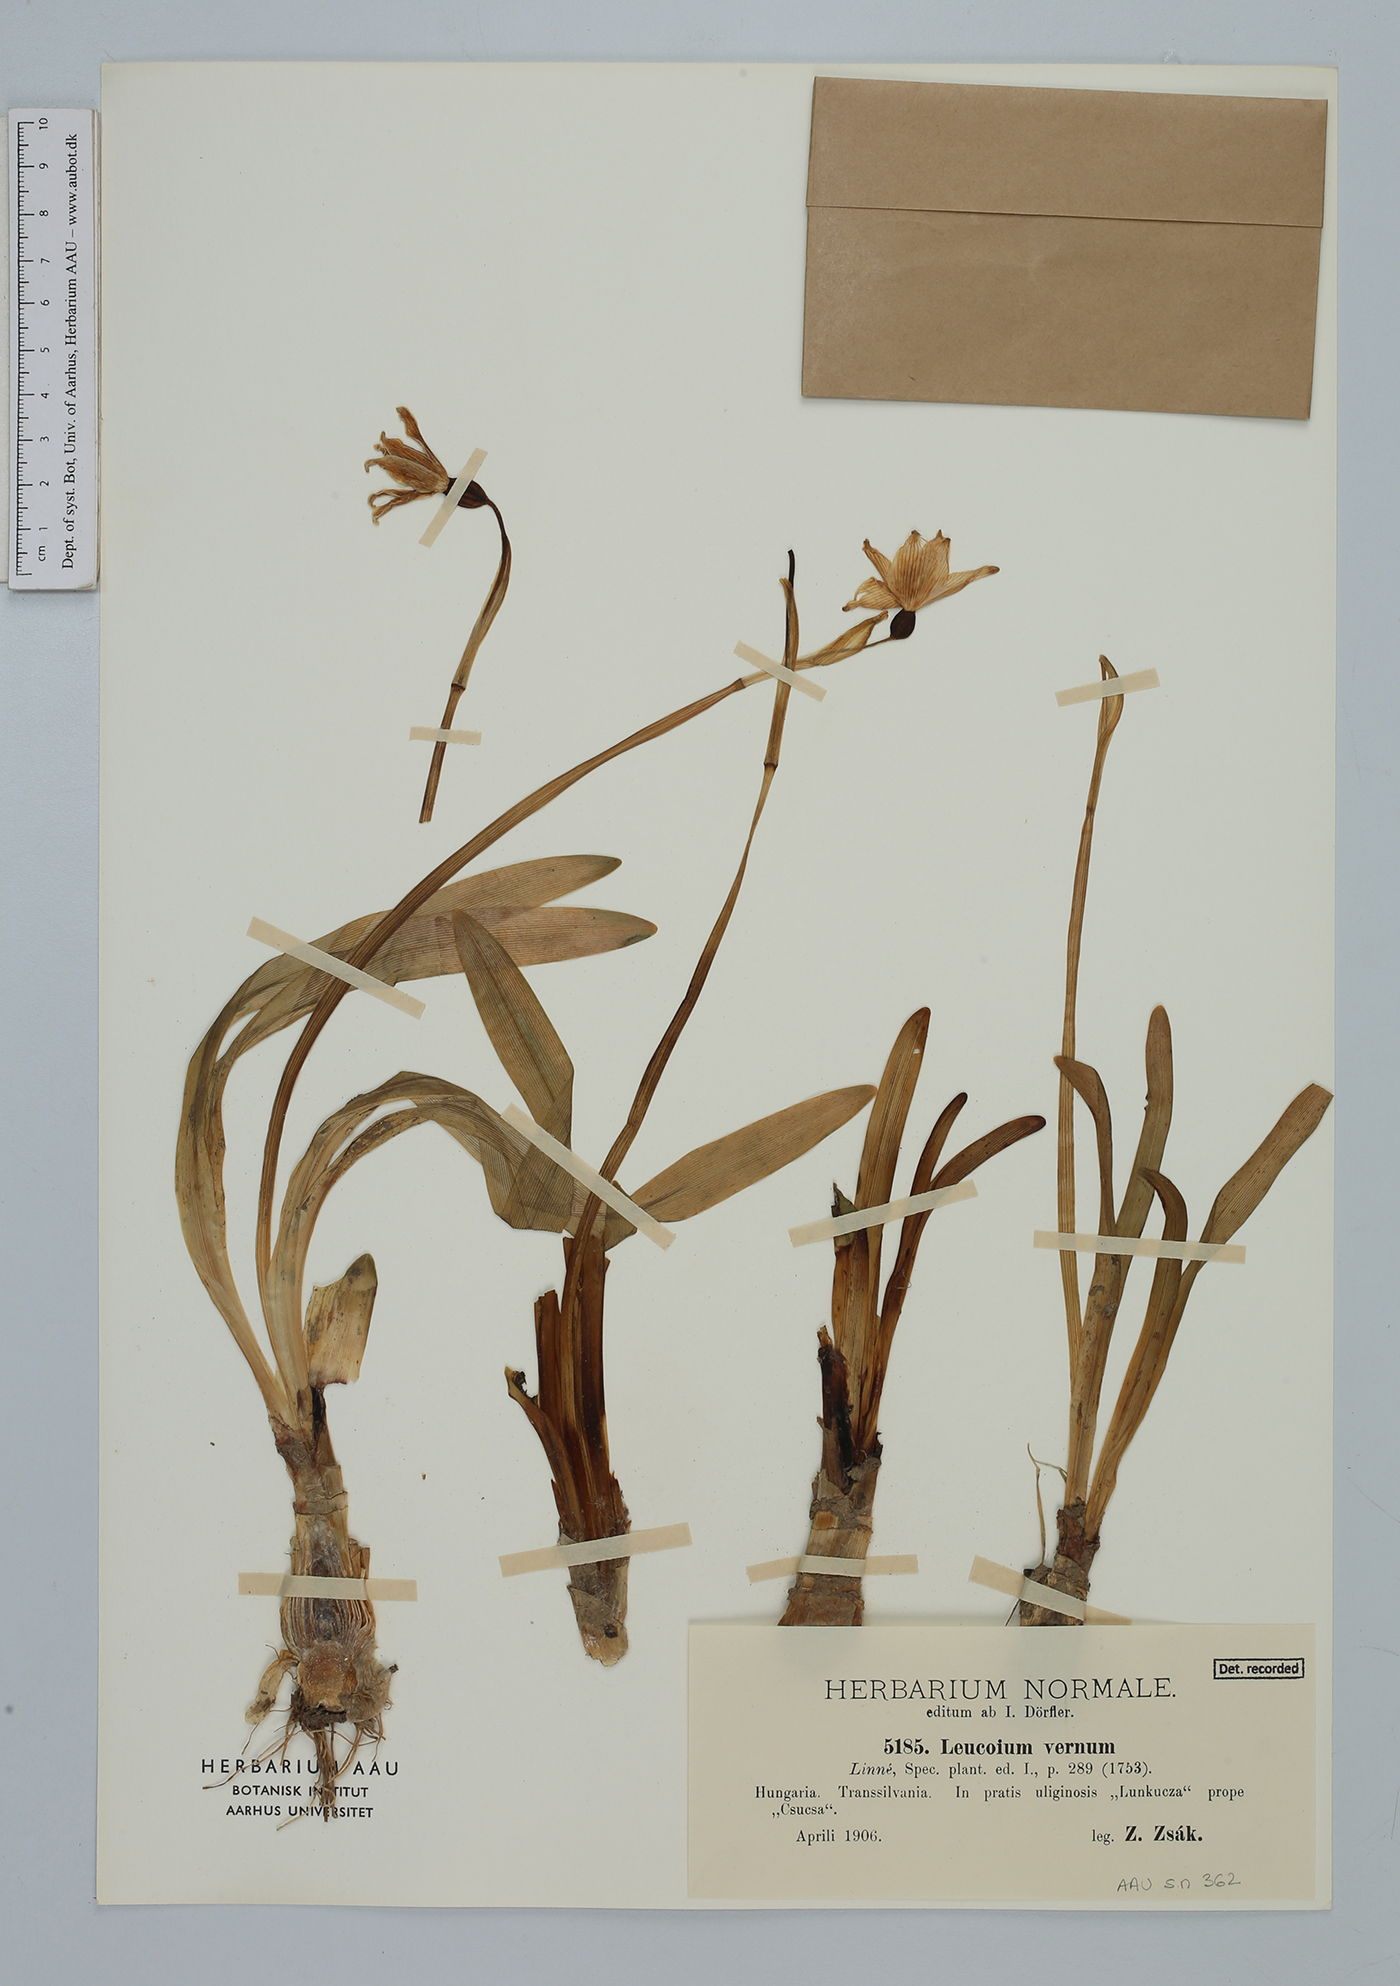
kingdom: Plantae
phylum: Tracheophyta
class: Liliopsida
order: Asparagales
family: Amaryllidaceae
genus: Leucojum
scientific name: Leucojum vernum
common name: Spring snowflake
